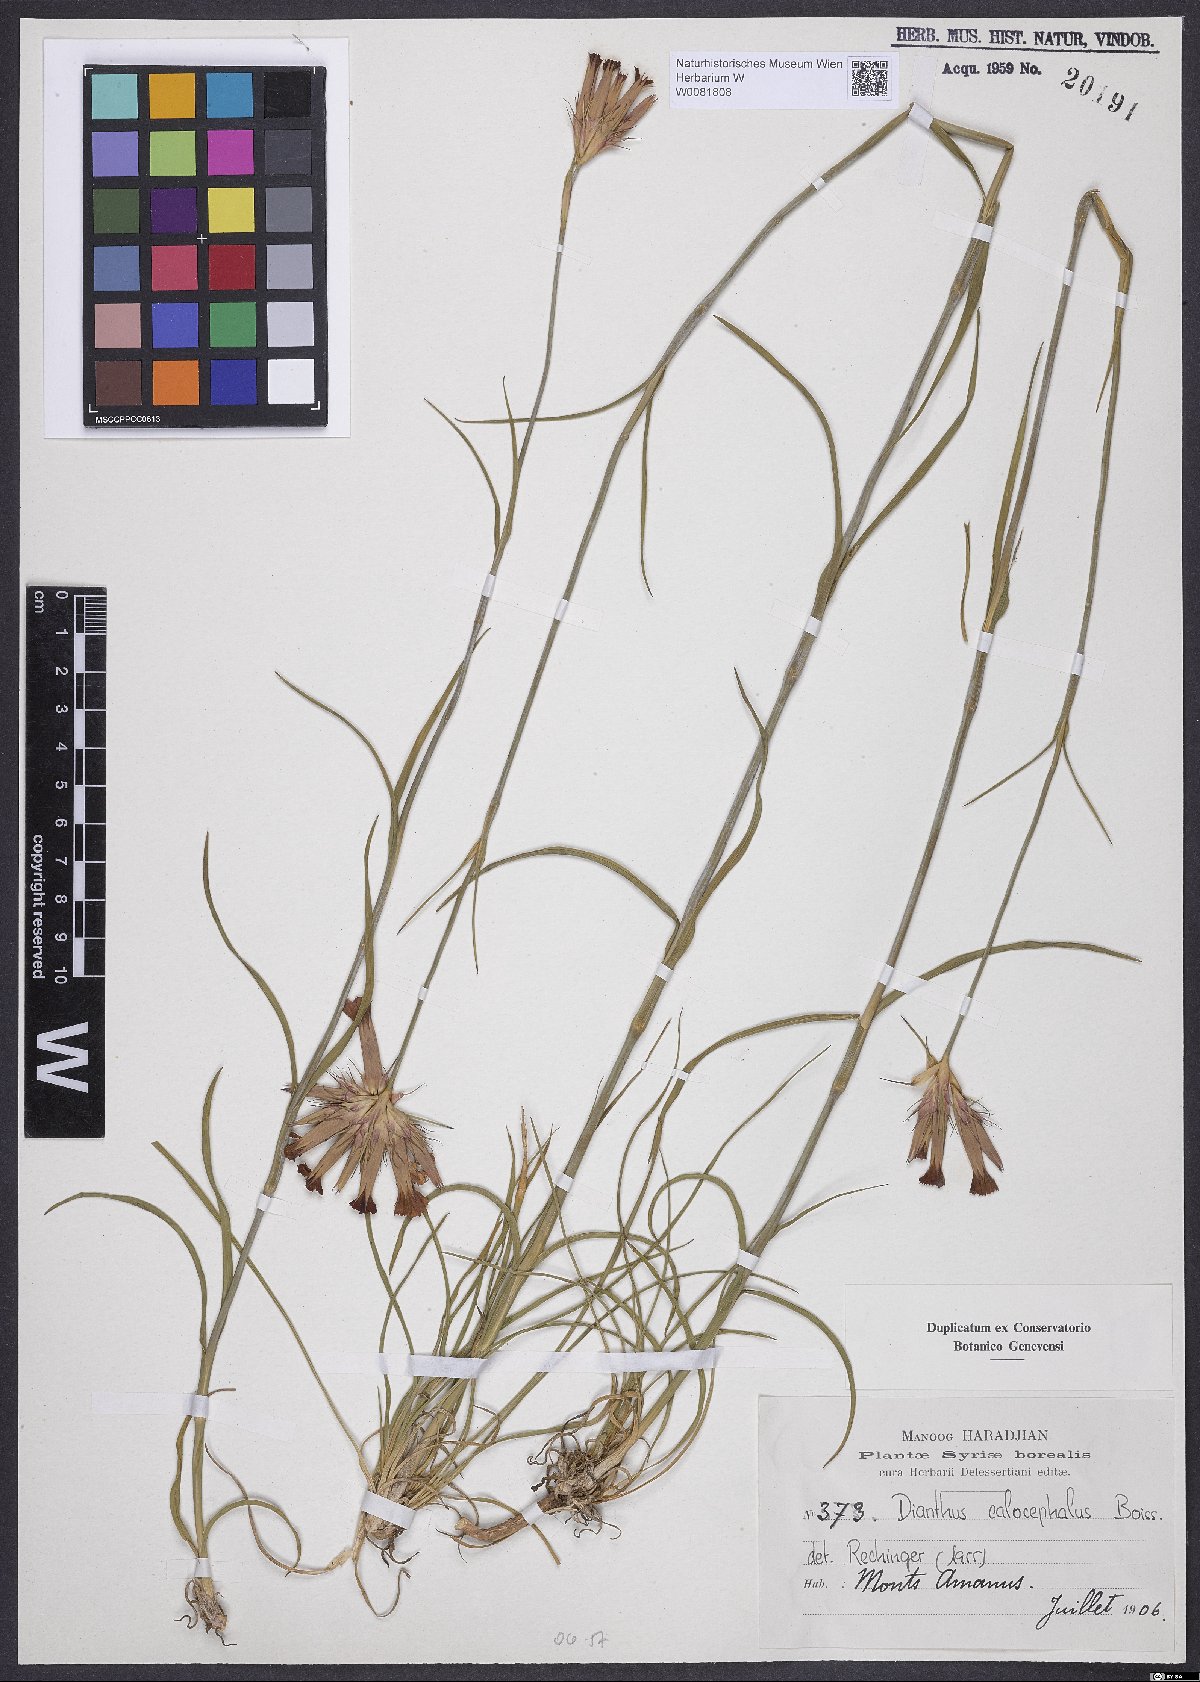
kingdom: Plantae
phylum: Tracheophyta
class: Magnoliopsida
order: Caryophyllales
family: Caryophyllaceae
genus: Dianthus
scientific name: Dianthus cruentus
